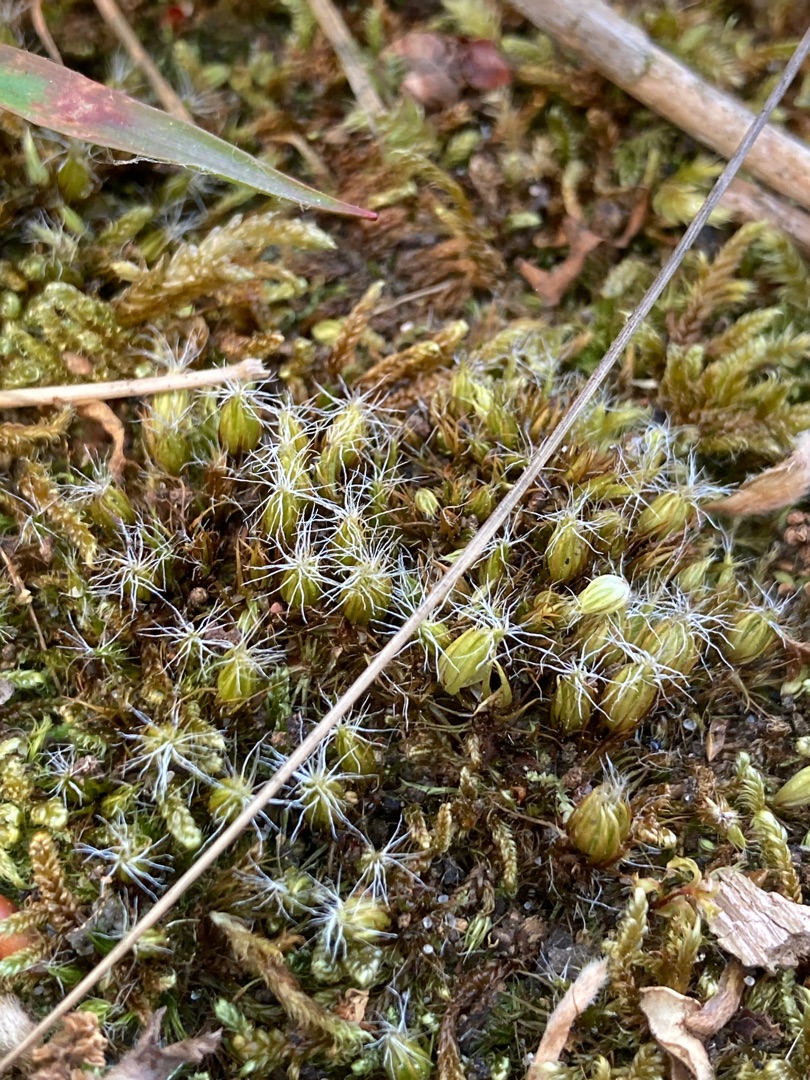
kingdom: Plantae
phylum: Bryophyta
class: Bryopsida
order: Dicranales
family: Leucobryaceae
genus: Campylopus
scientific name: Campylopus introflexus
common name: Stjerne-bredribbe
